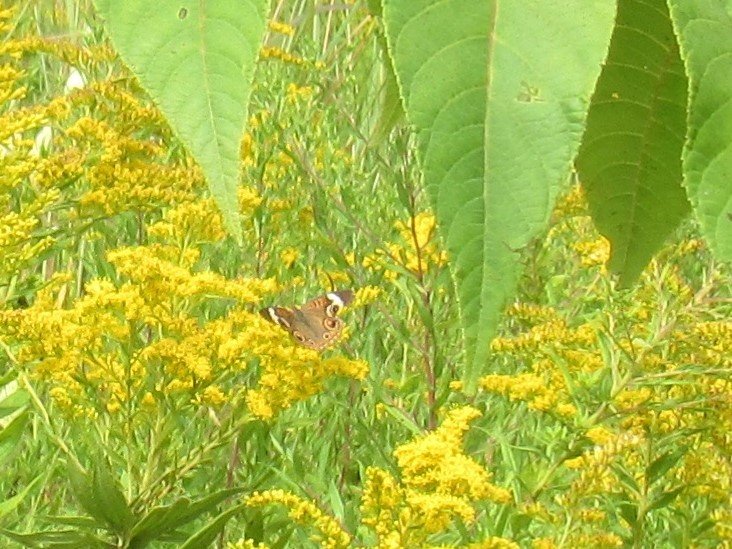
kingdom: Animalia
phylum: Arthropoda
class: Insecta
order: Lepidoptera
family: Nymphalidae
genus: Junonia
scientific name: Junonia coenia
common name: Common Buckeye
